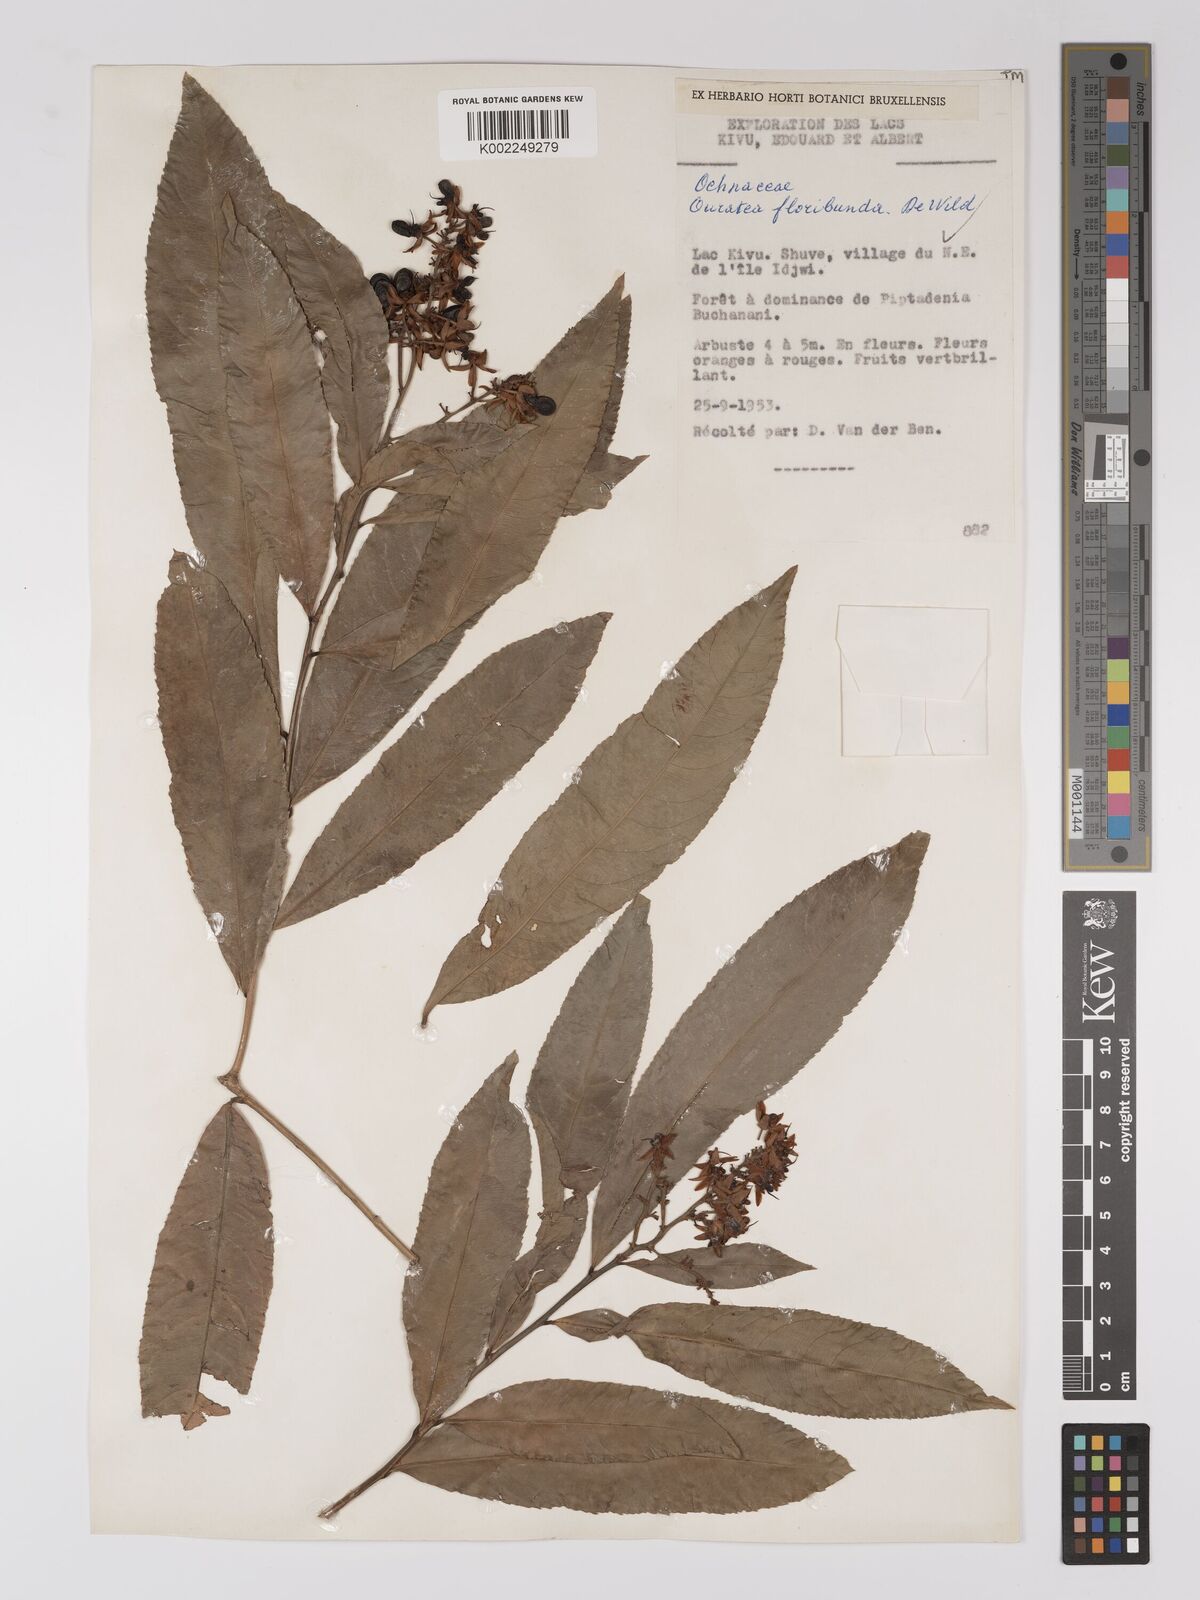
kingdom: Plantae
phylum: Tracheophyta
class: Magnoliopsida
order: Malpighiales
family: Ochnaceae
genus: Campylospermum
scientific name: Campylospermum likimiense
